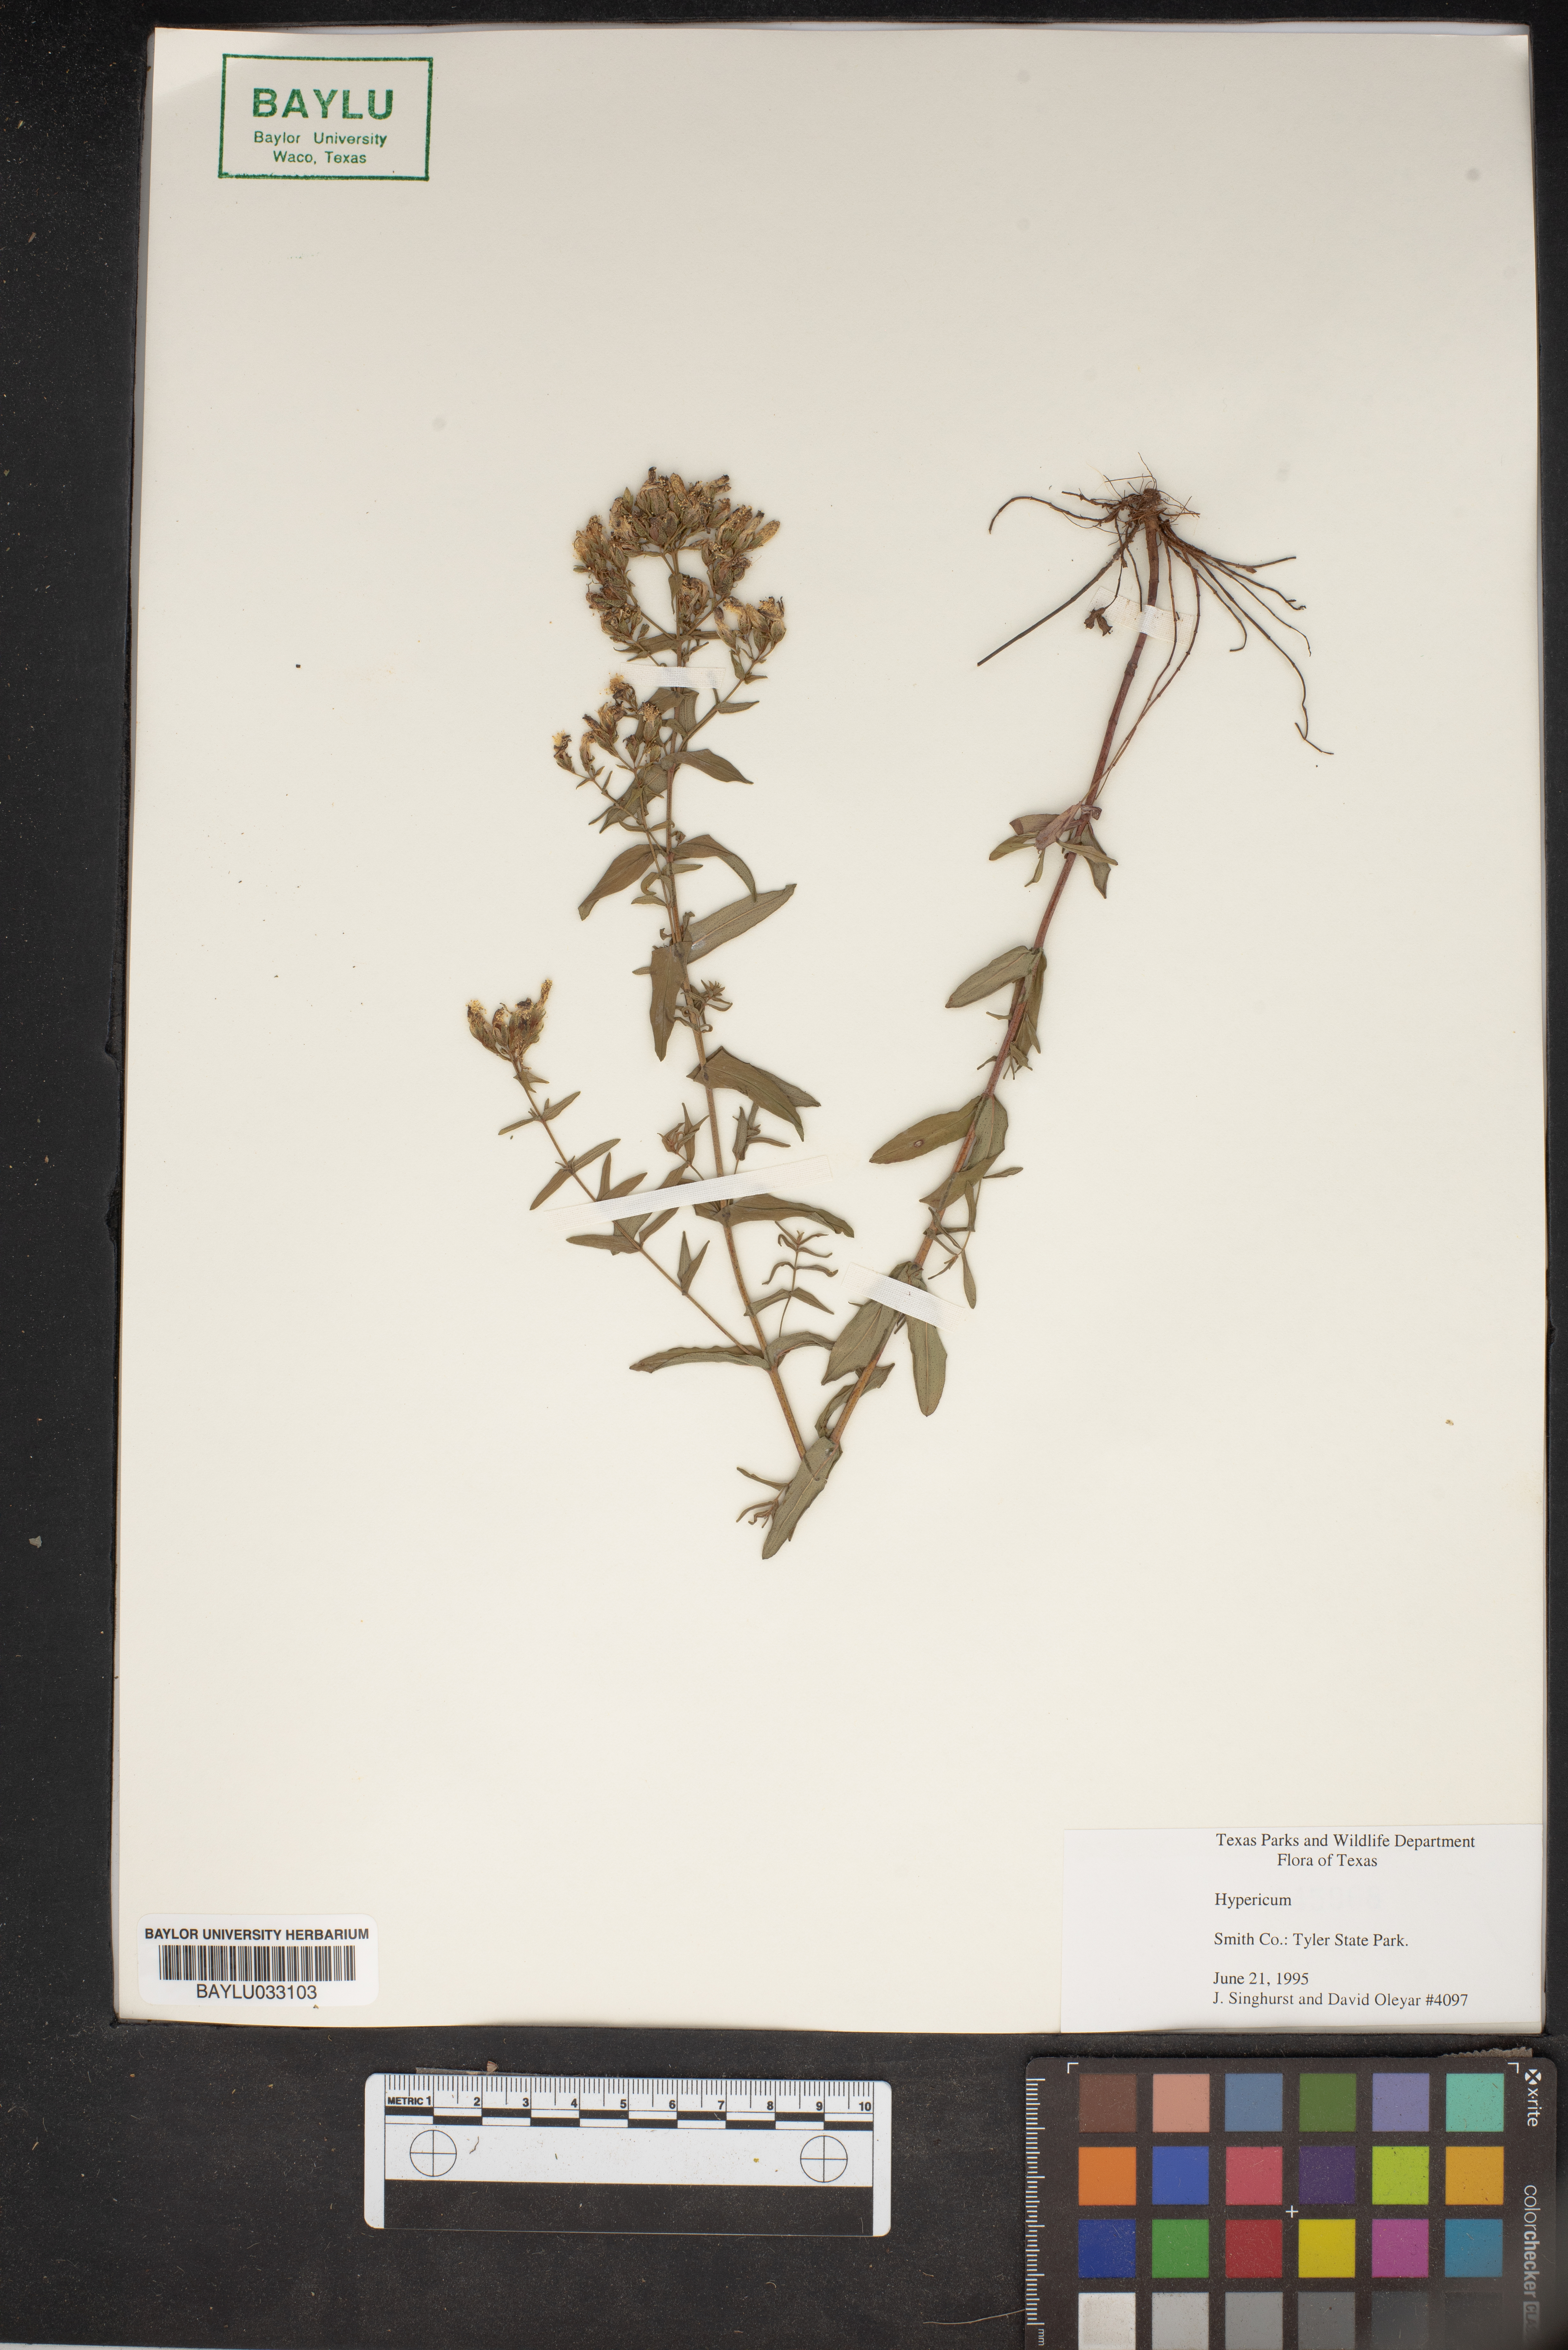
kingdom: Plantae
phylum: Tracheophyta
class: Magnoliopsida
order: Malpighiales
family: Hypericaceae
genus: Hypericum
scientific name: Hypericum
